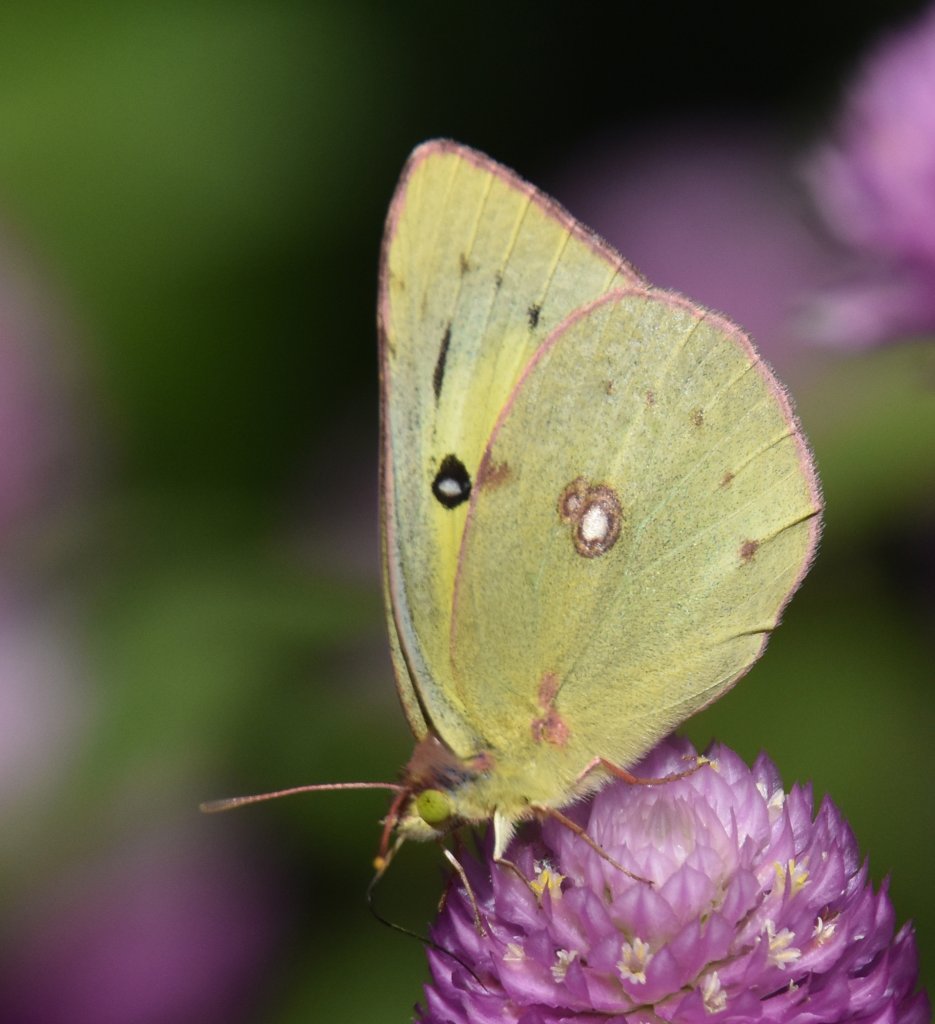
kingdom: Animalia
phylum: Arthropoda
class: Insecta
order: Lepidoptera
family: Pieridae
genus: Colias
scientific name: Colias philodice
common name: Clouded Sulphur
